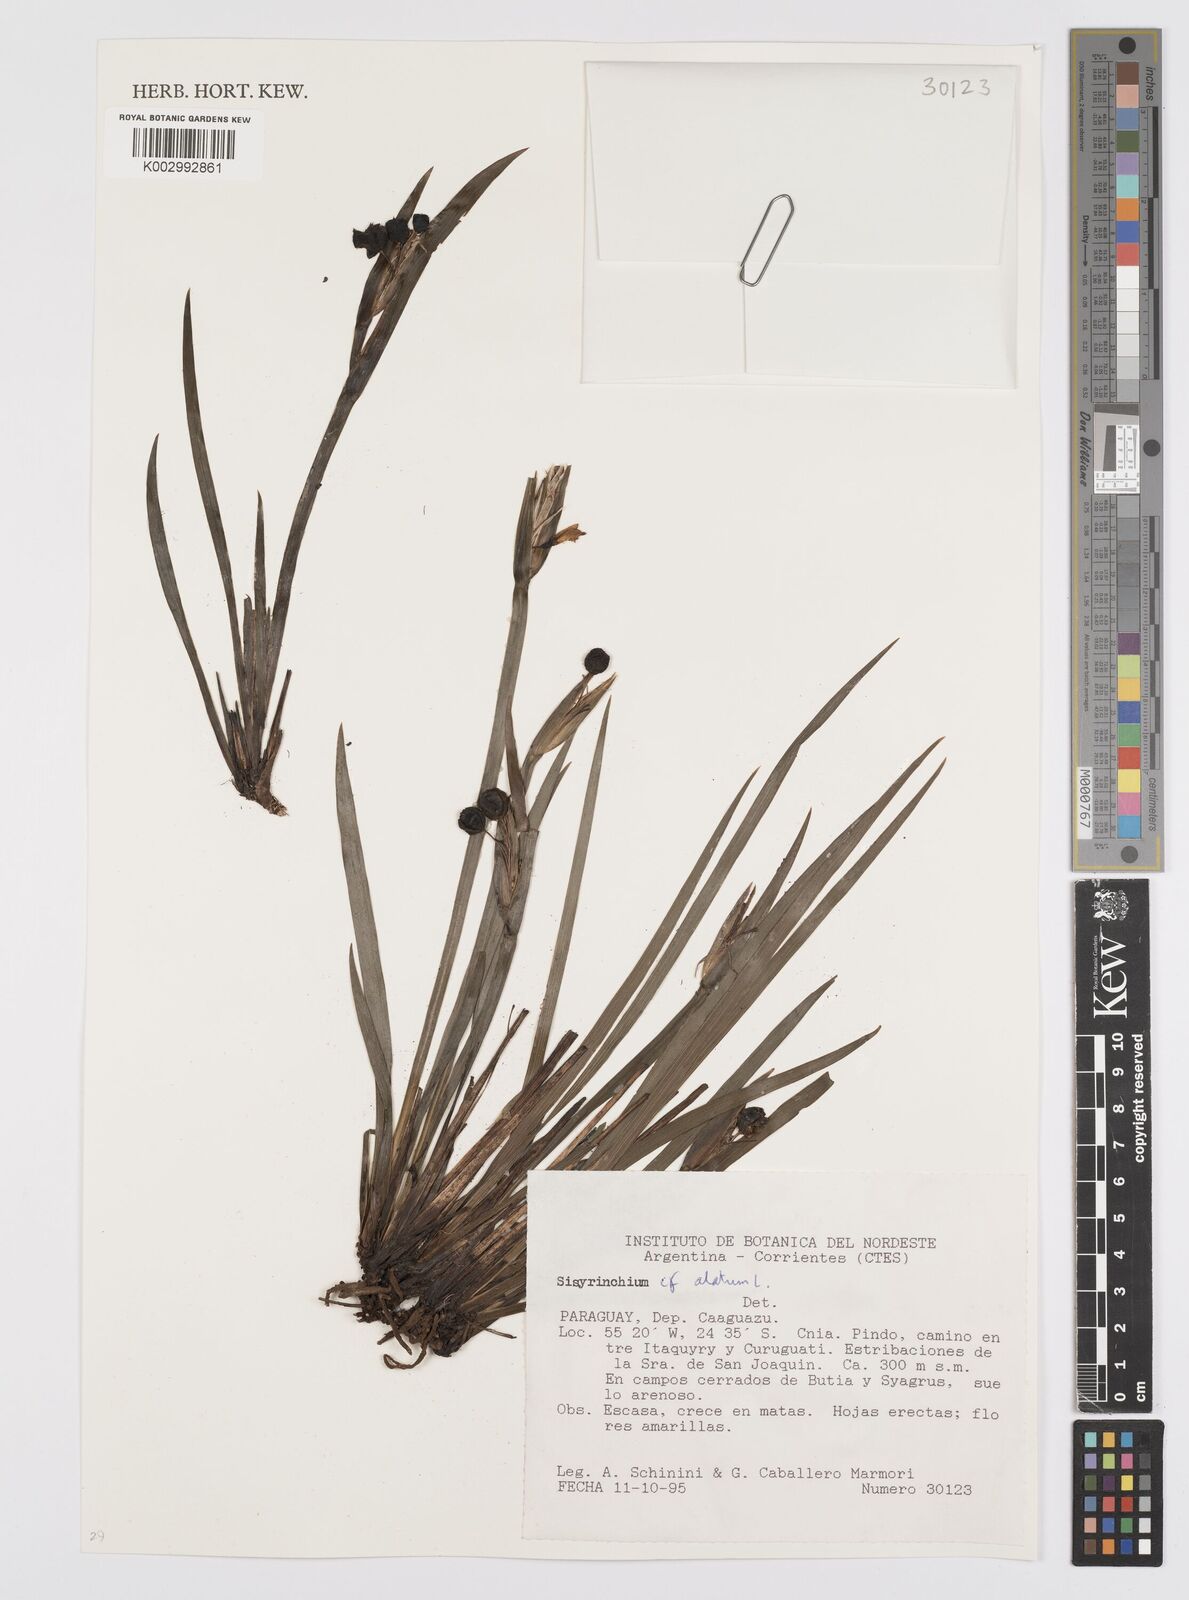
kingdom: Plantae
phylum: Tracheophyta
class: Liliopsida
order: Asparagales
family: Iridaceae
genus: Sisyrinchium
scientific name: Sisyrinchium vaginatum
